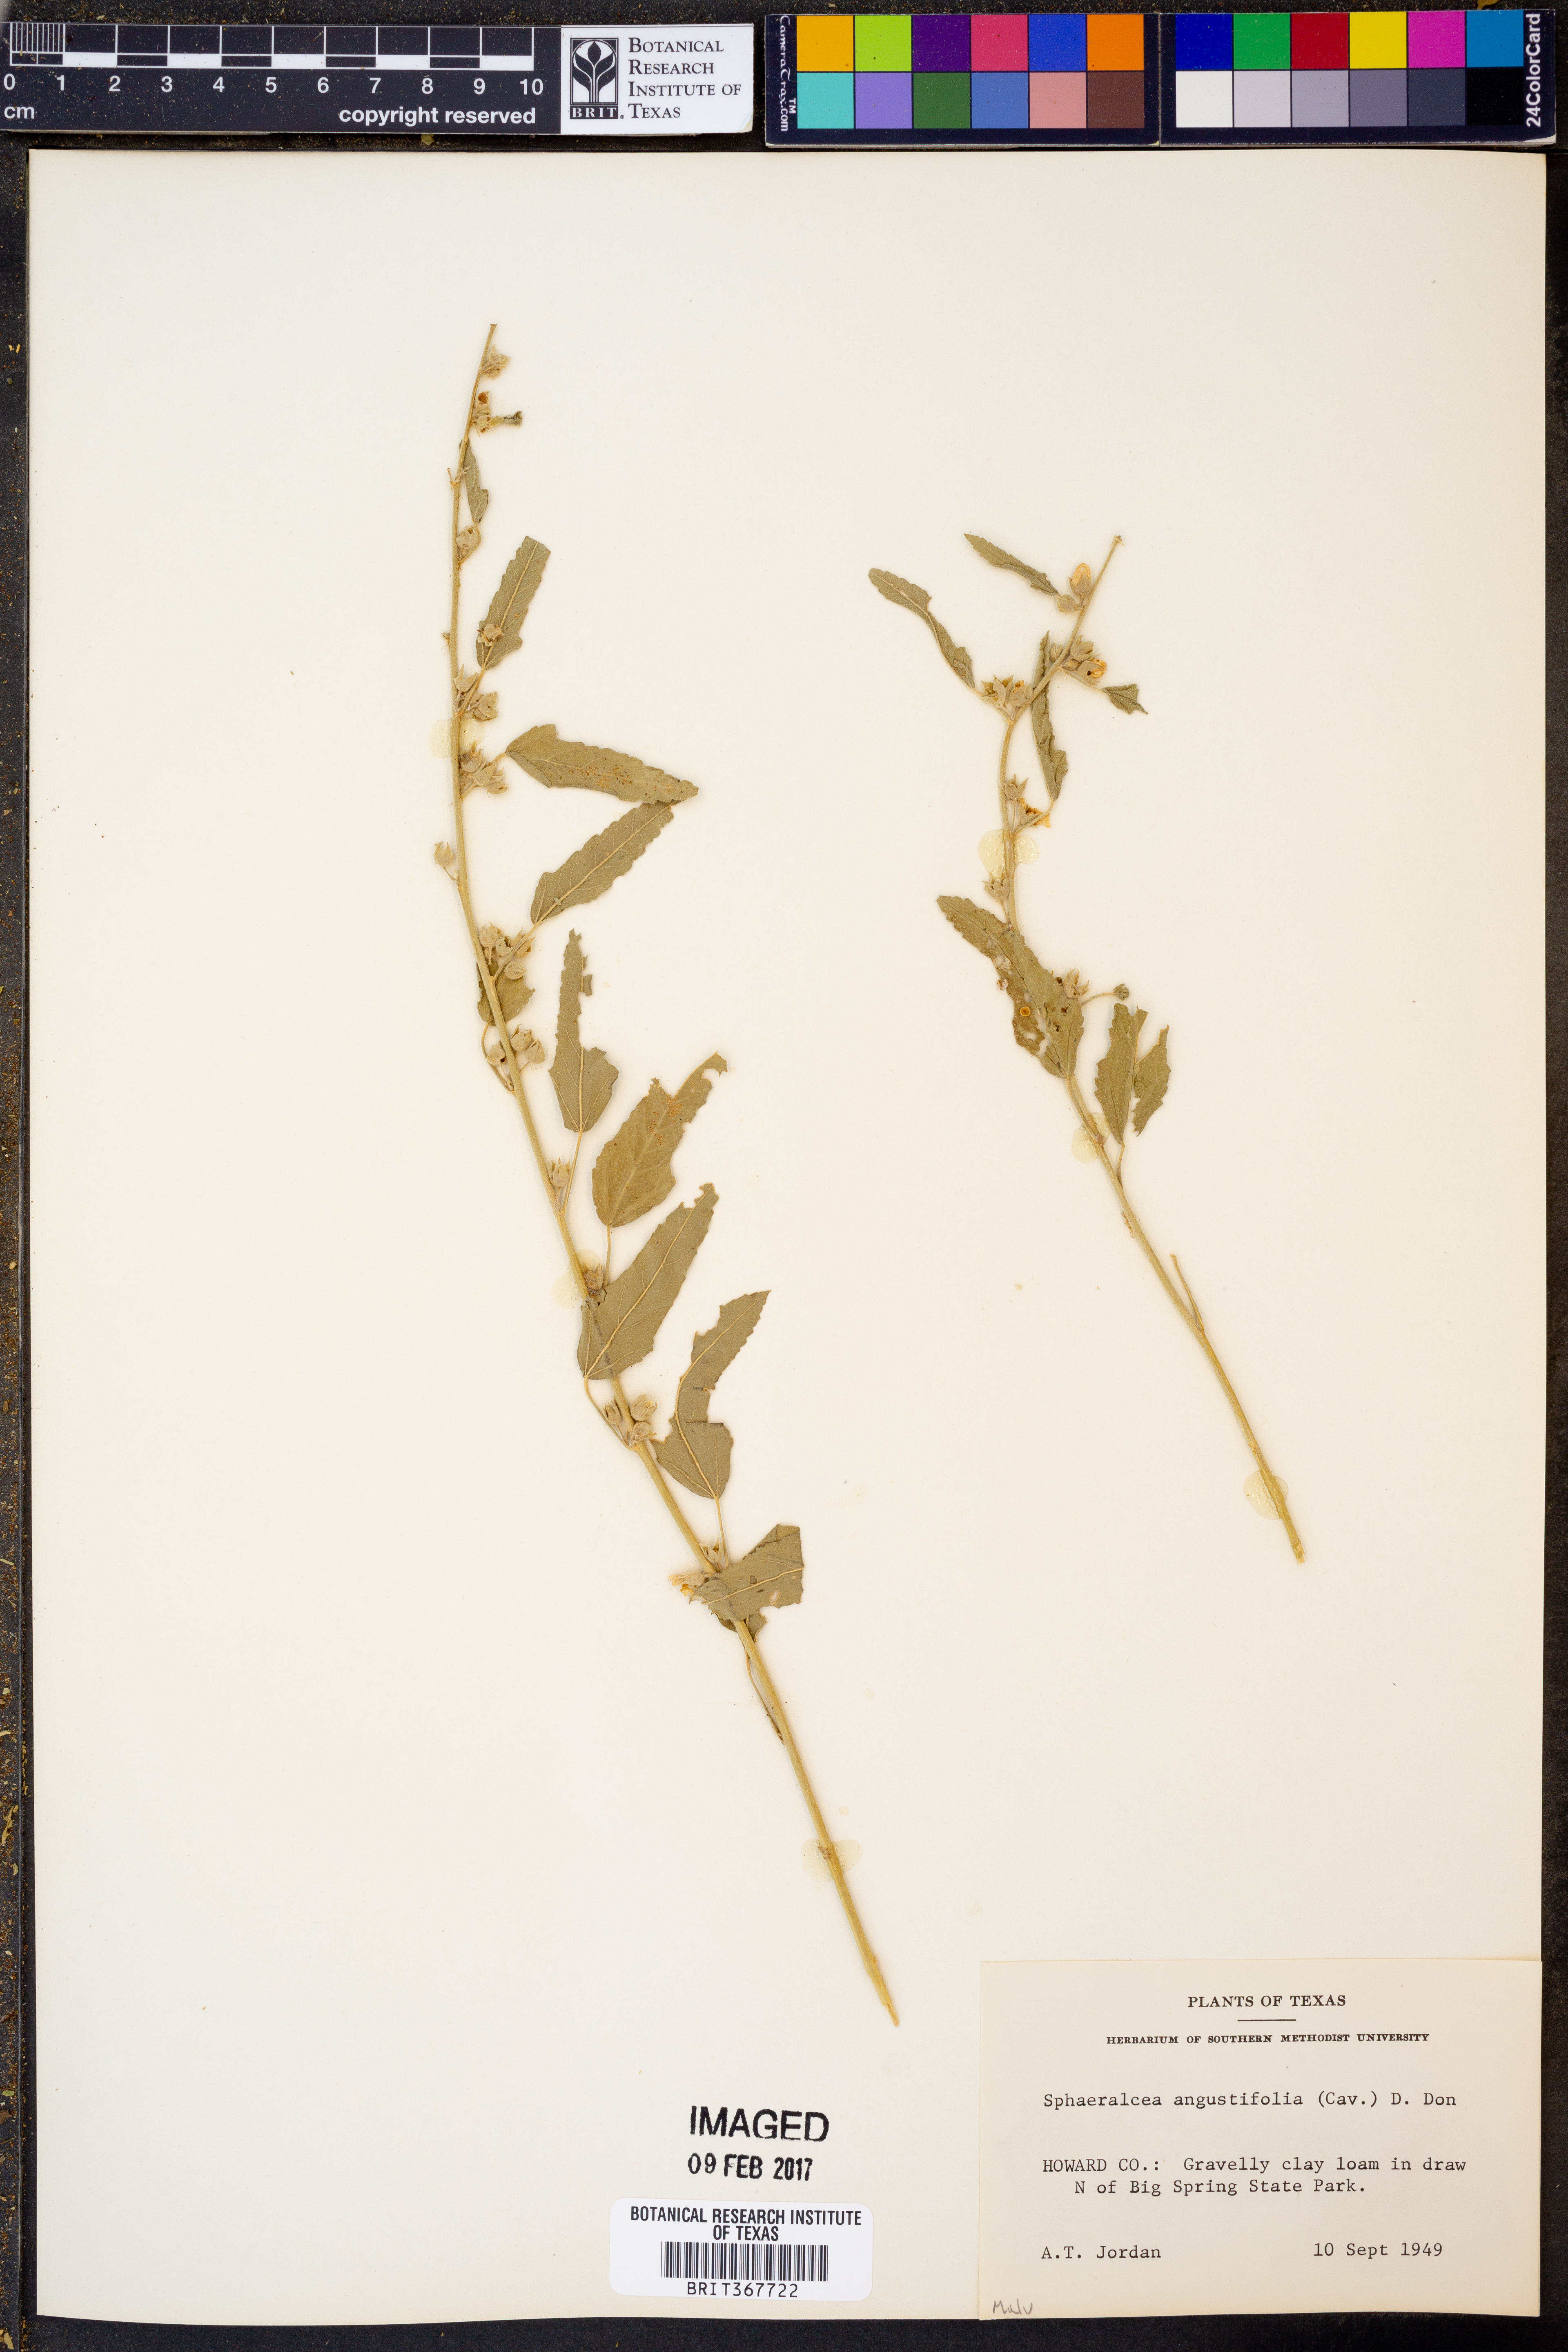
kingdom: Plantae
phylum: Tracheophyta
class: Magnoliopsida
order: Malvales
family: Malvaceae
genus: Sphaeralcea
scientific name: Sphaeralcea angustifolia
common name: Copper globe-mallow
